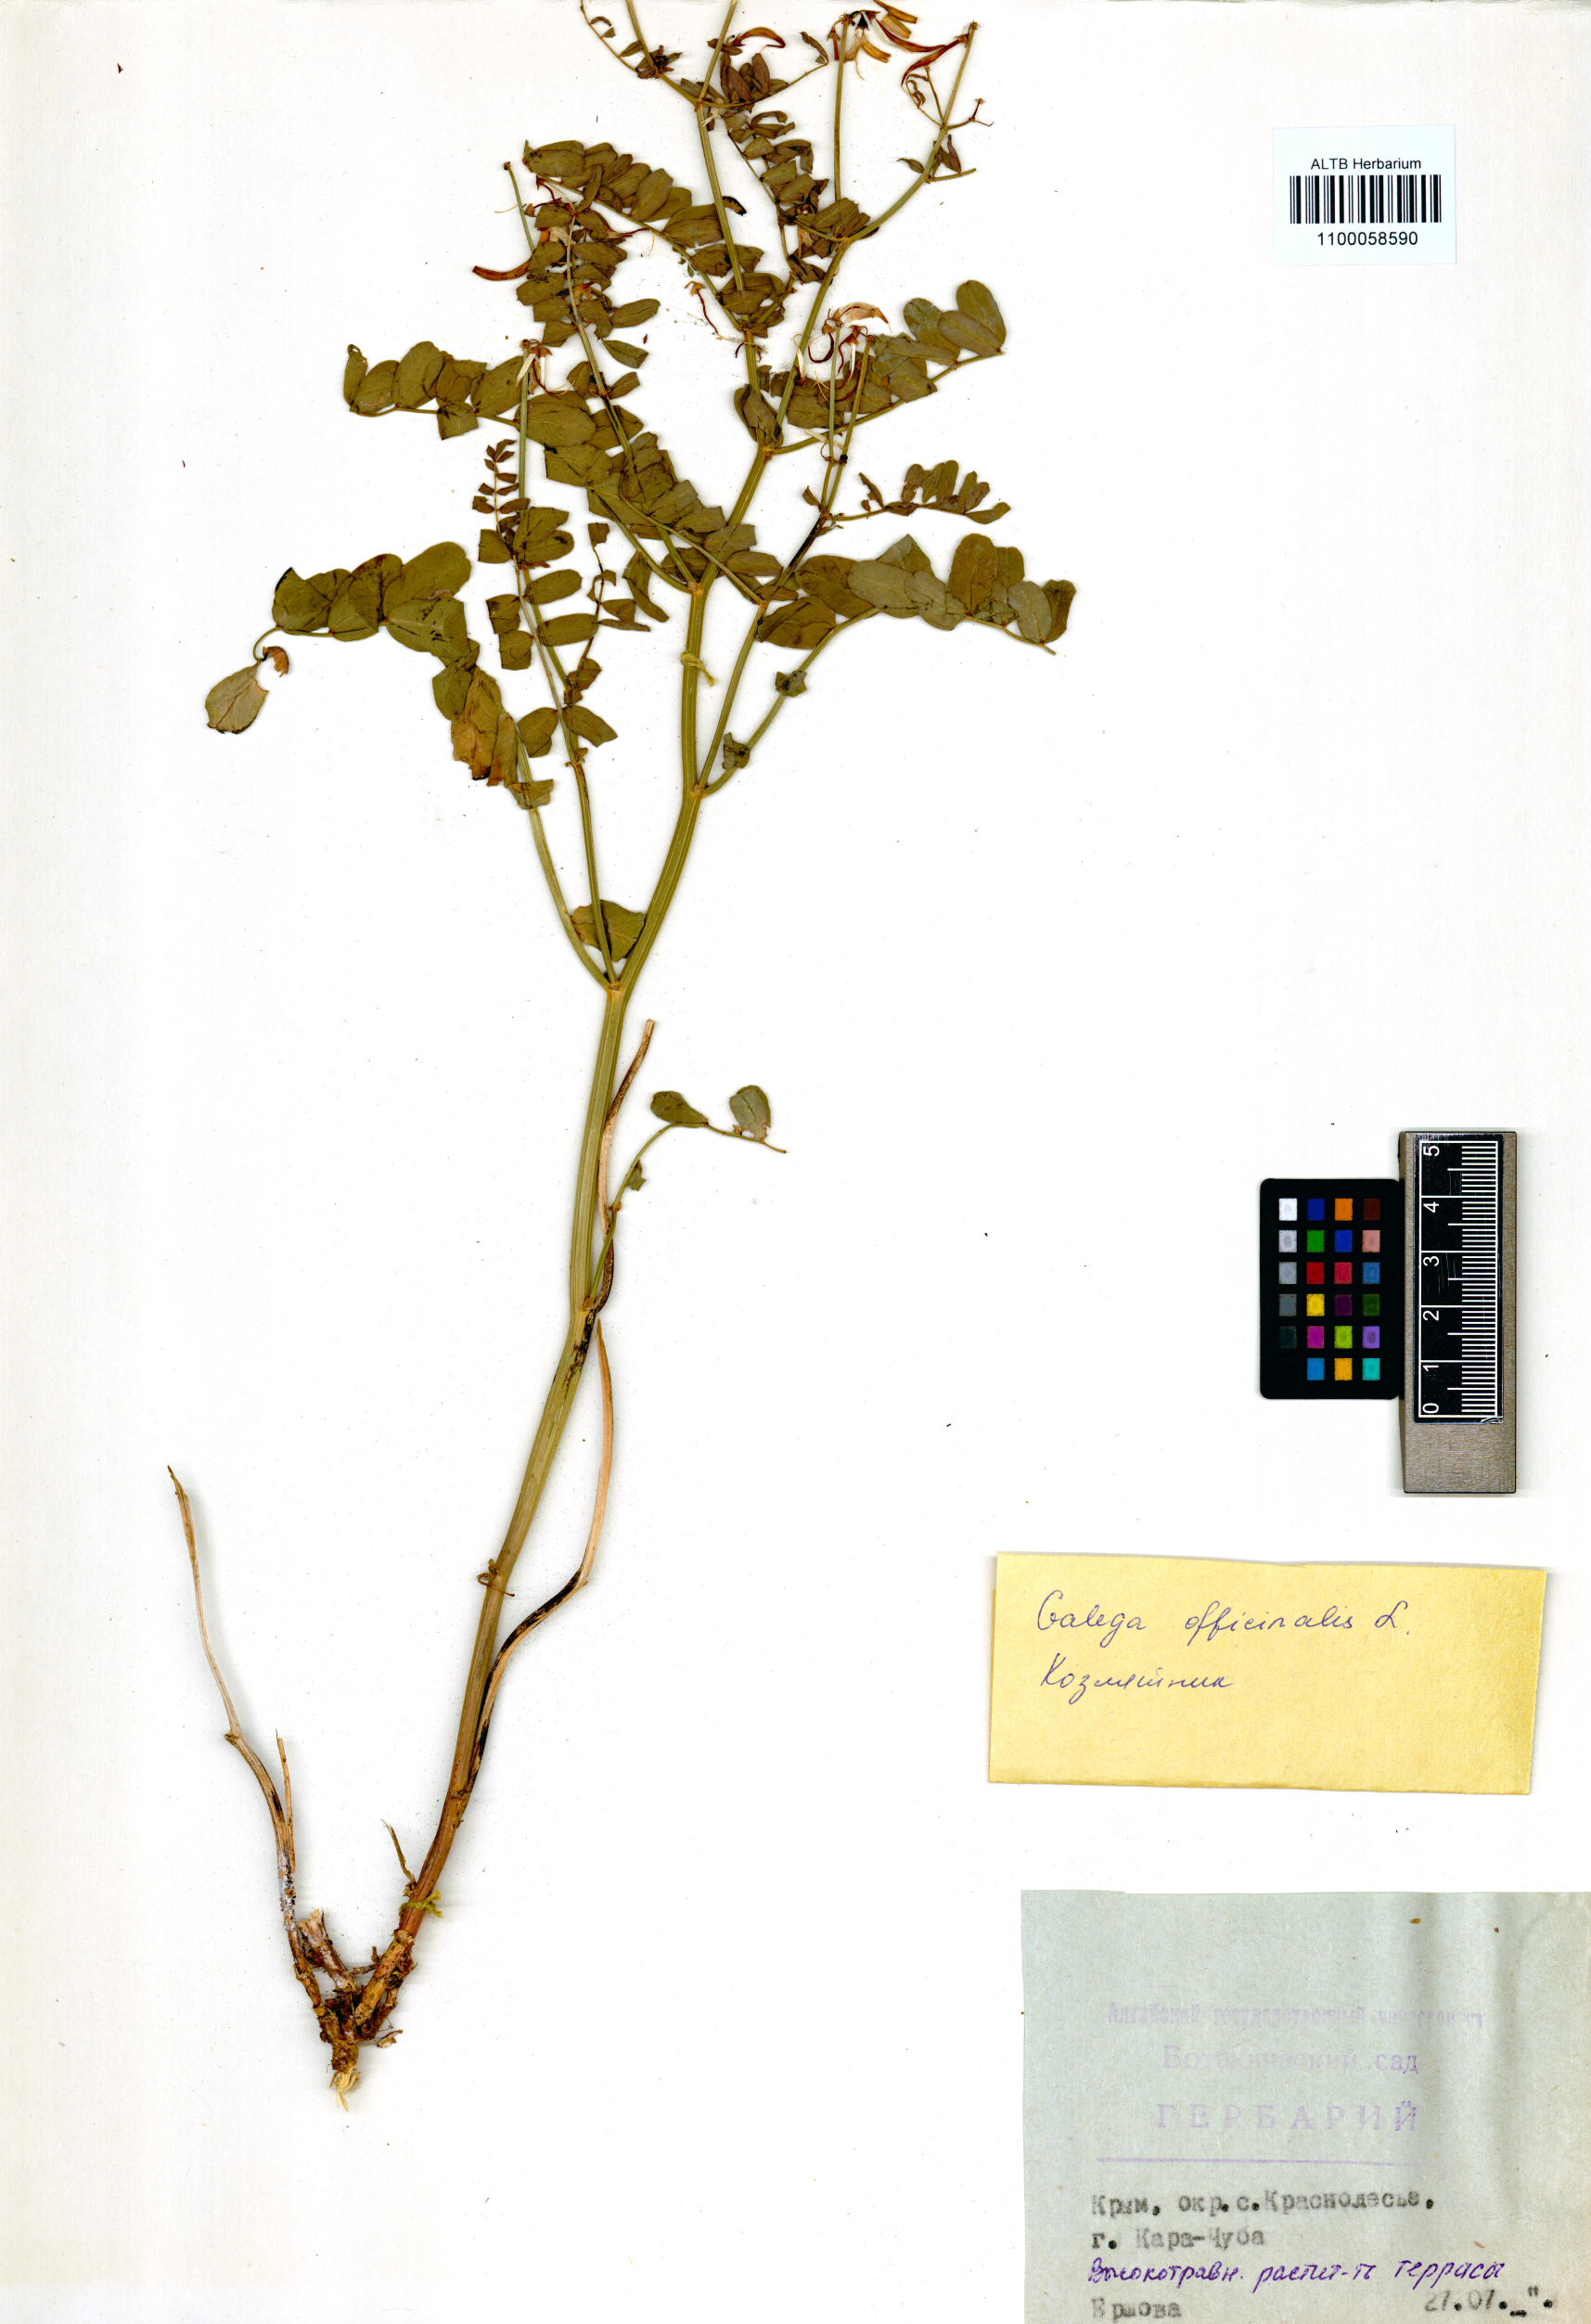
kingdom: Plantae
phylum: Tracheophyta
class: Magnoliopsida
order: Fabales
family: Fabaceae
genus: Galega
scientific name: Galega officinalis
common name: Goat's-rue
